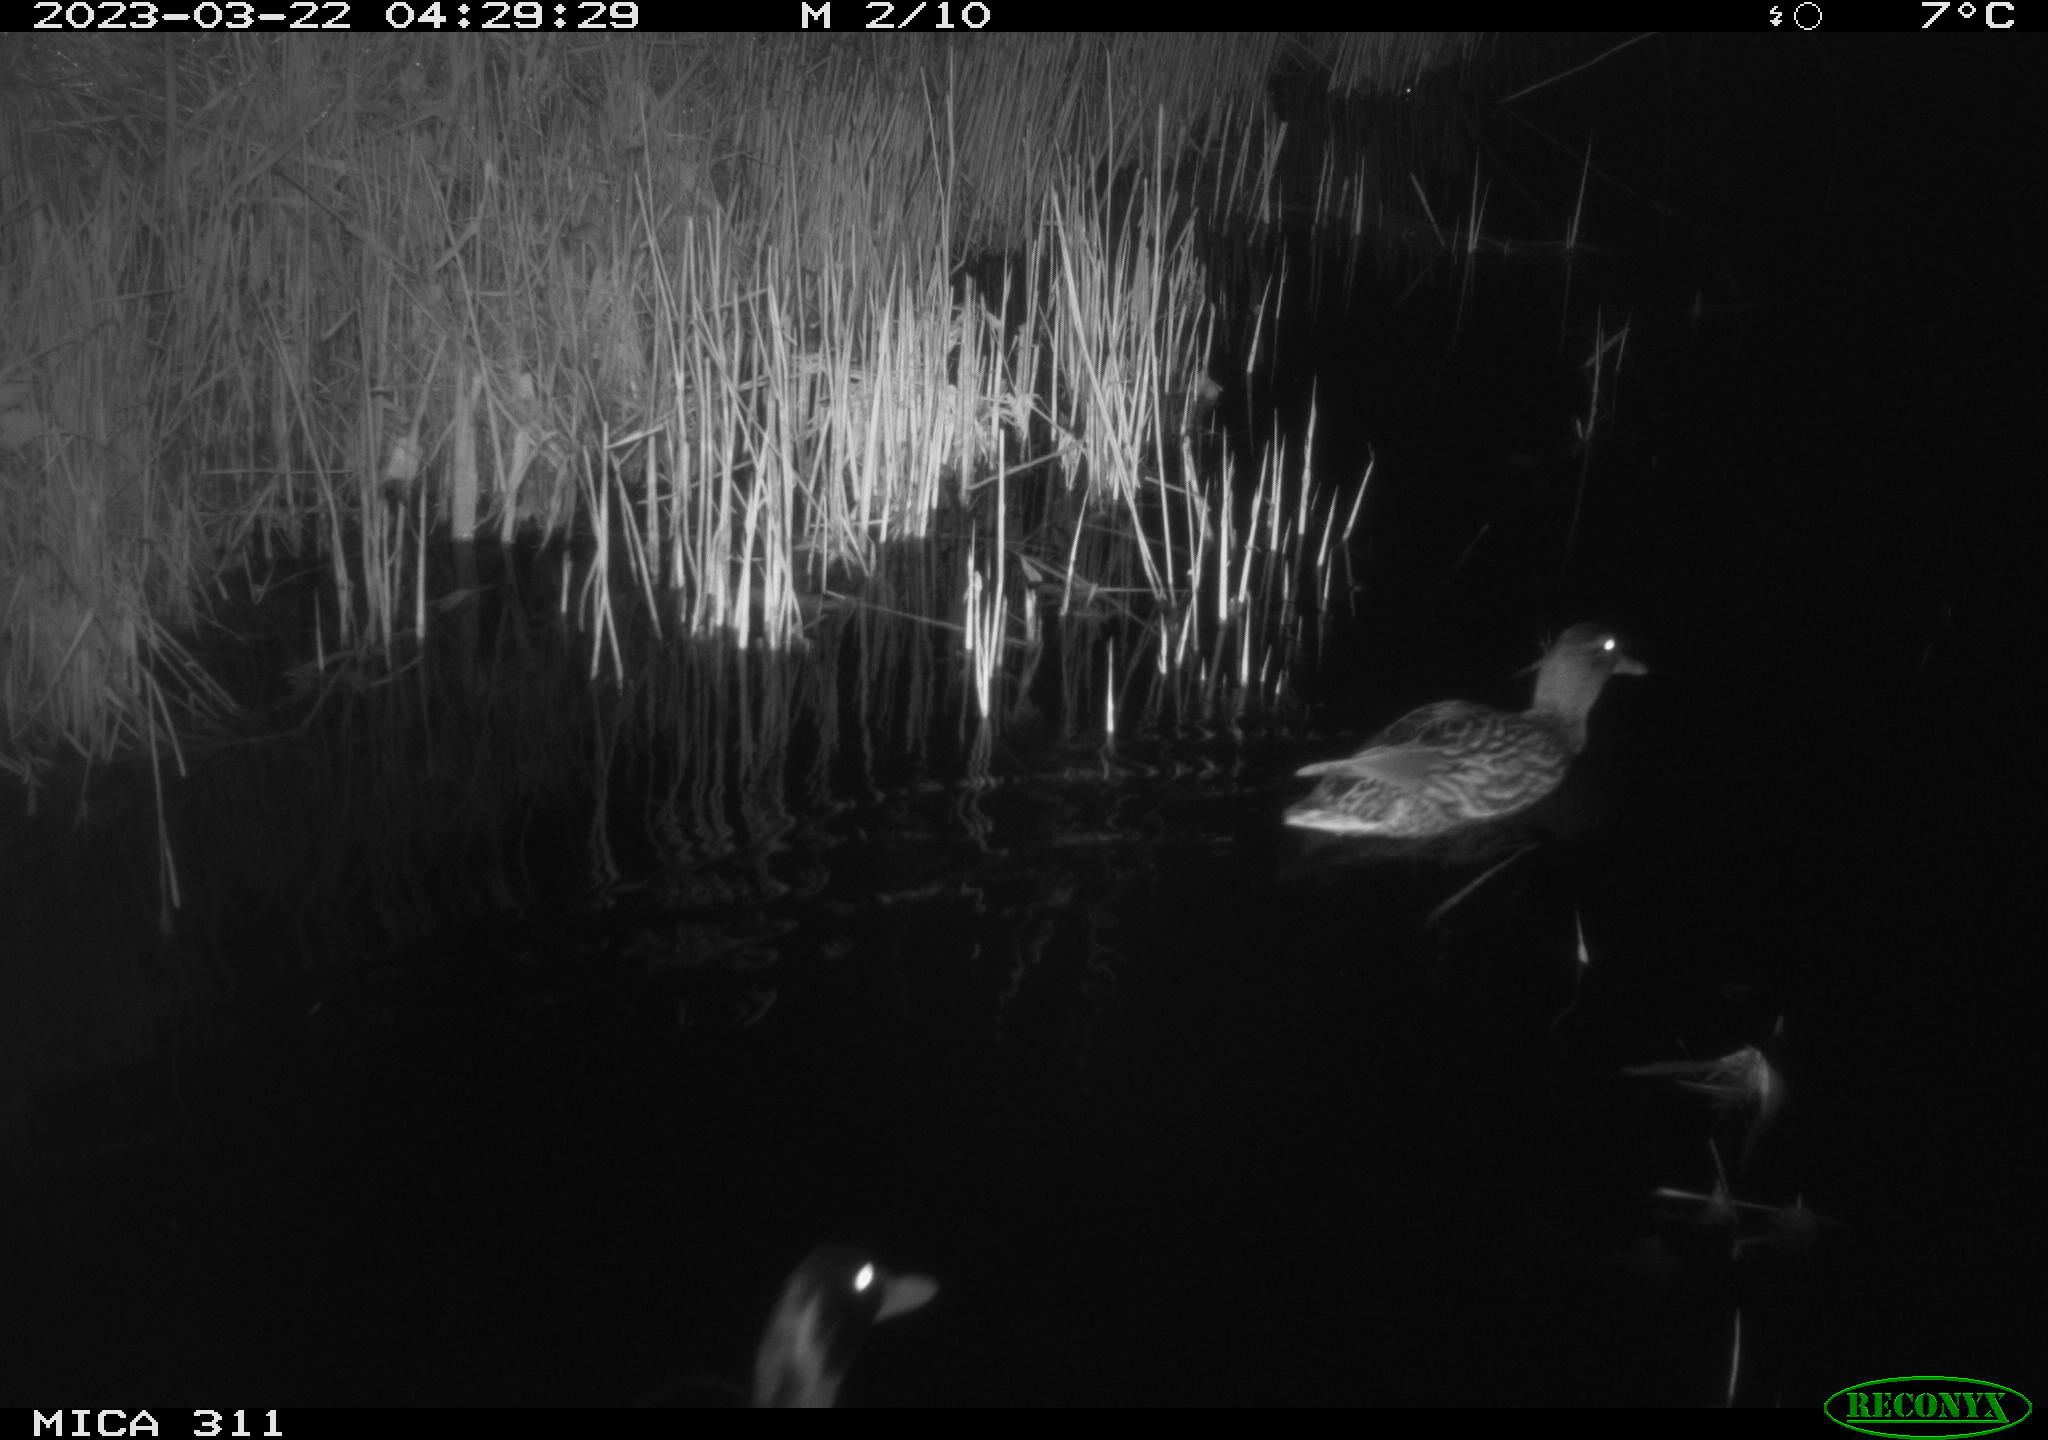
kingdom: Animalia
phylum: Chordata
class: Aves
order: Anseriformes
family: Anatidae
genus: Anas
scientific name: Anas
